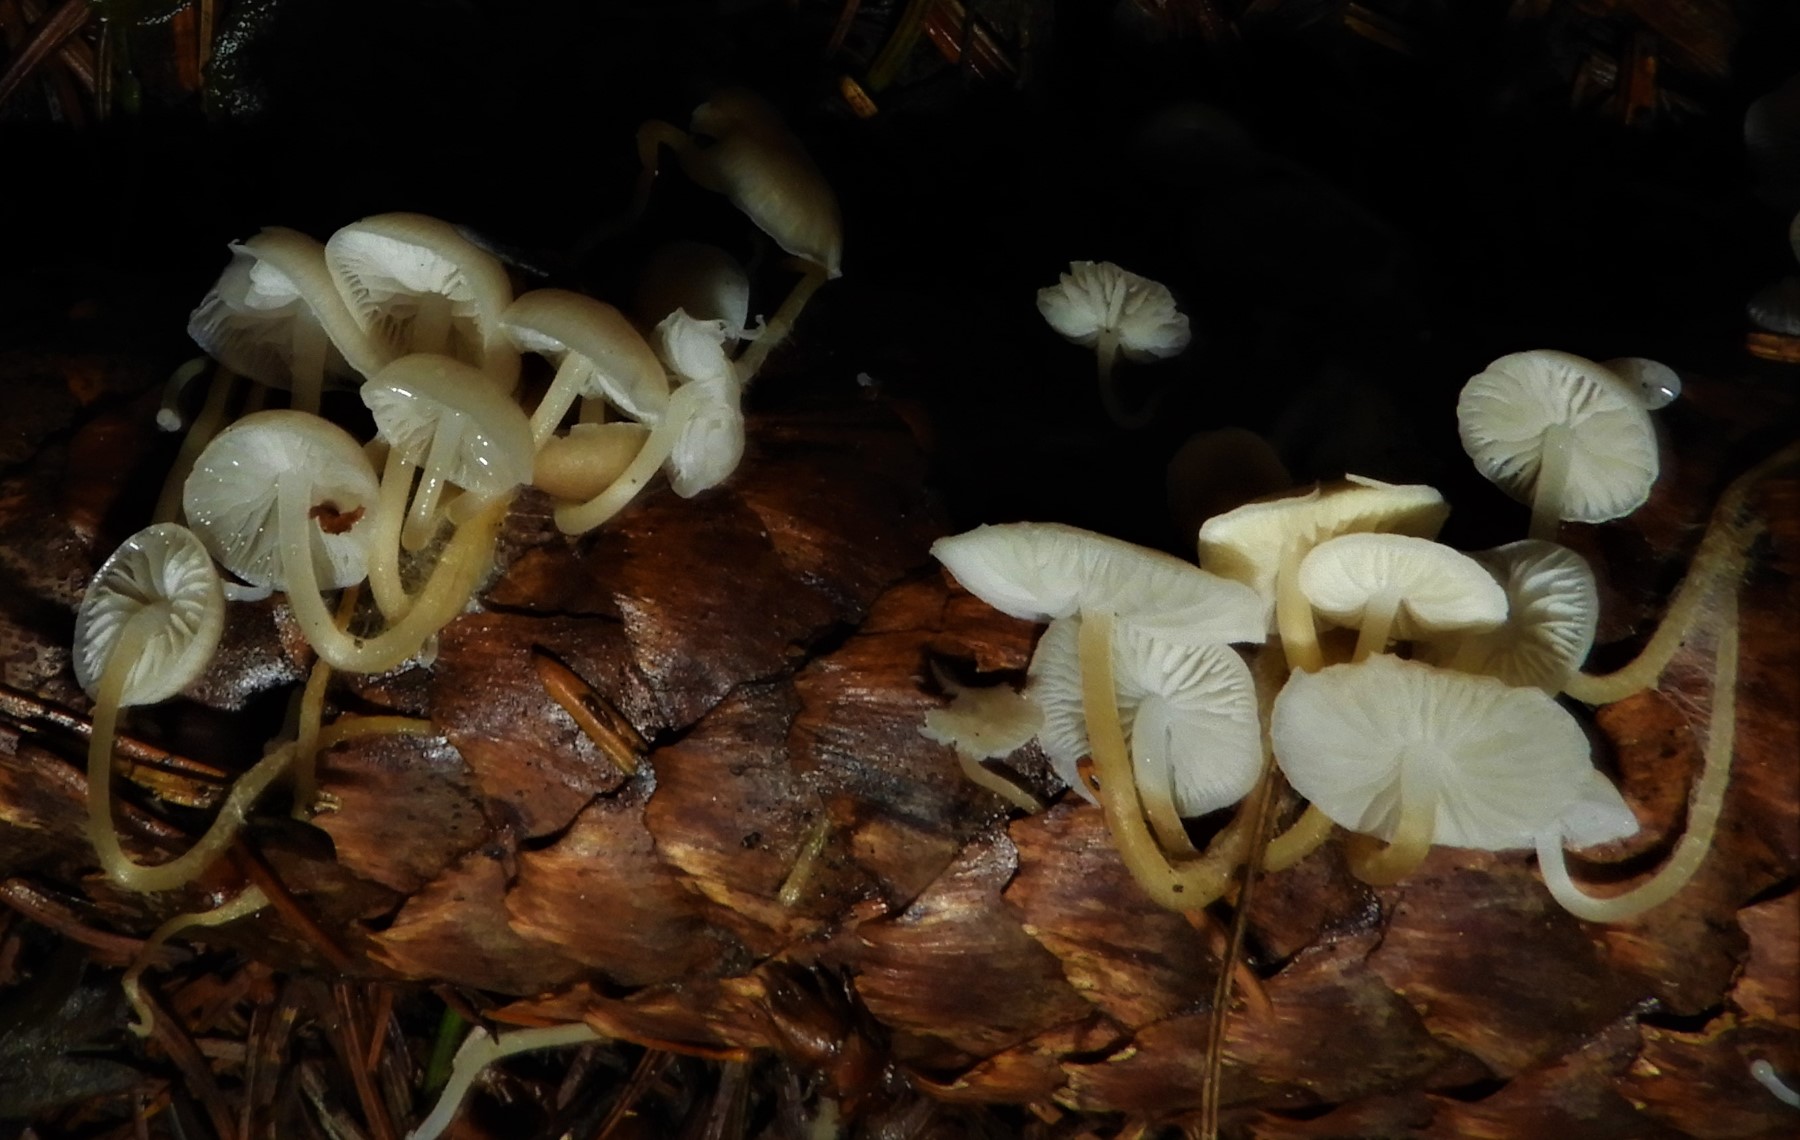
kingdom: Fungi
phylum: Basidiomycota
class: Agaricomycetes
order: Agaricales
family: Physalacriaceae
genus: Strobilurus
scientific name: Strobilurus esculentus
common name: gran-koglehat
